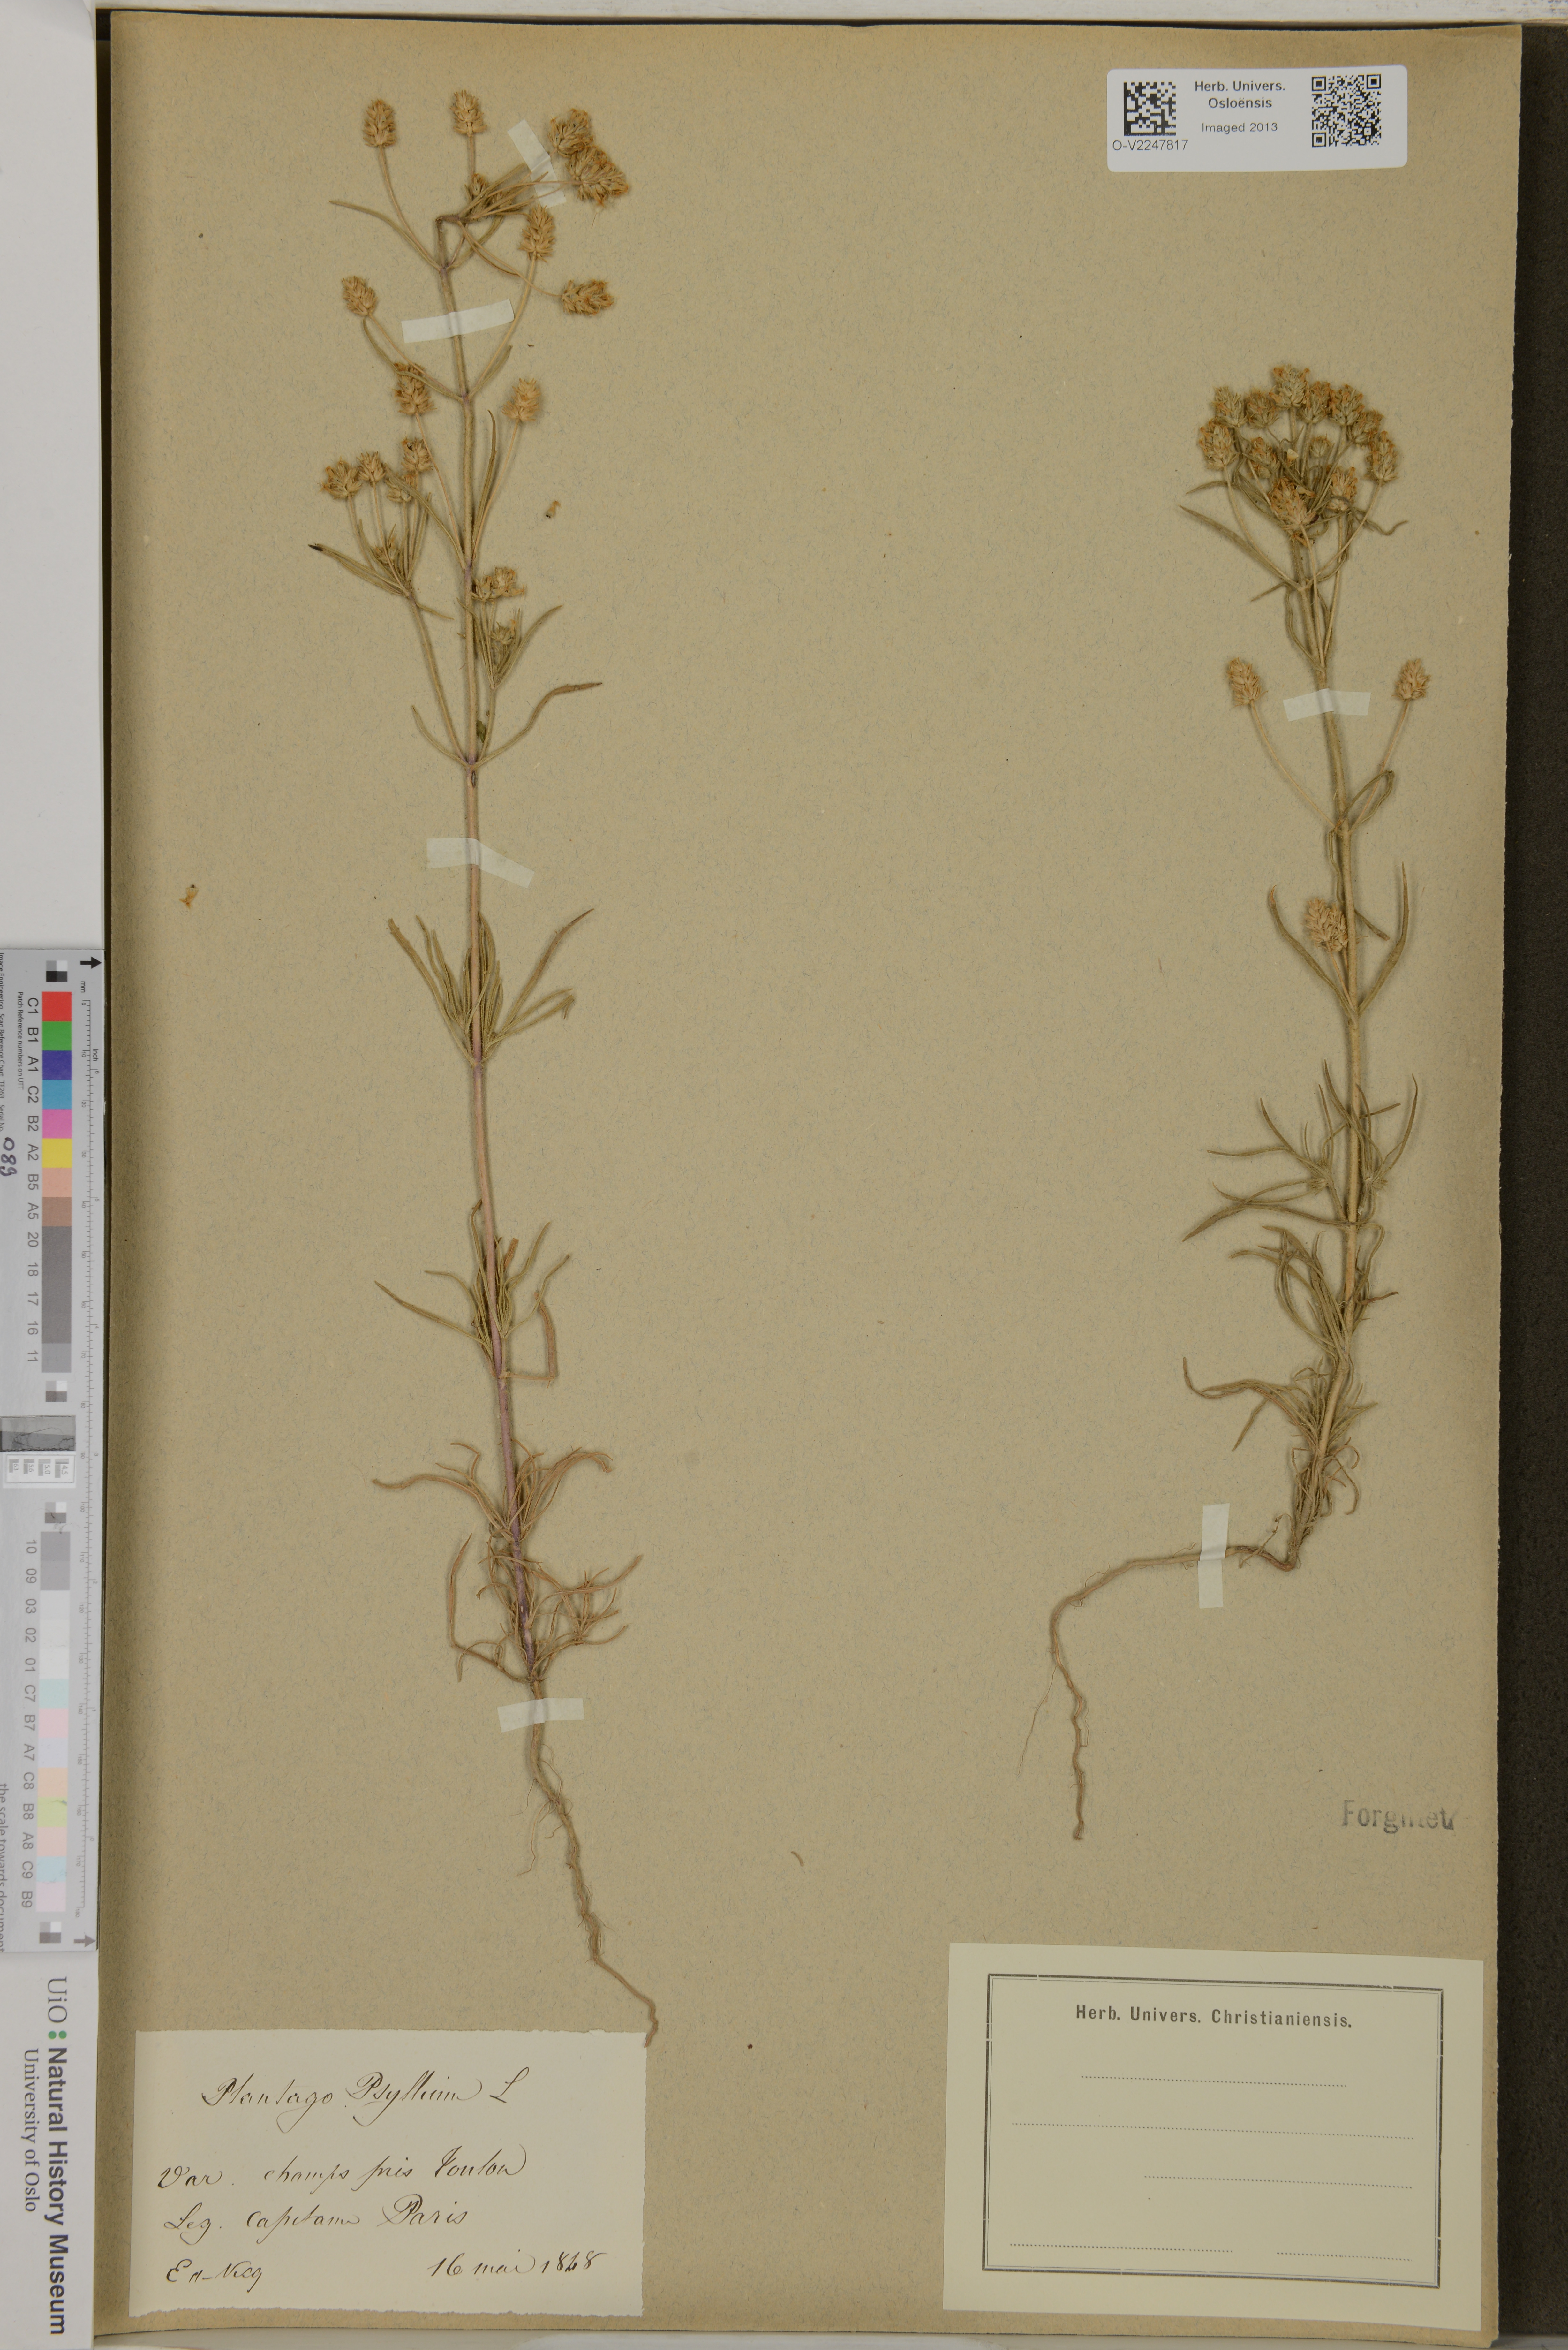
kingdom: Plantae
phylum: Tracheophyta
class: Magnoliopsida
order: Lamiales
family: Plantaginaceae
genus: Plantago
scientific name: Plantago psyllium
